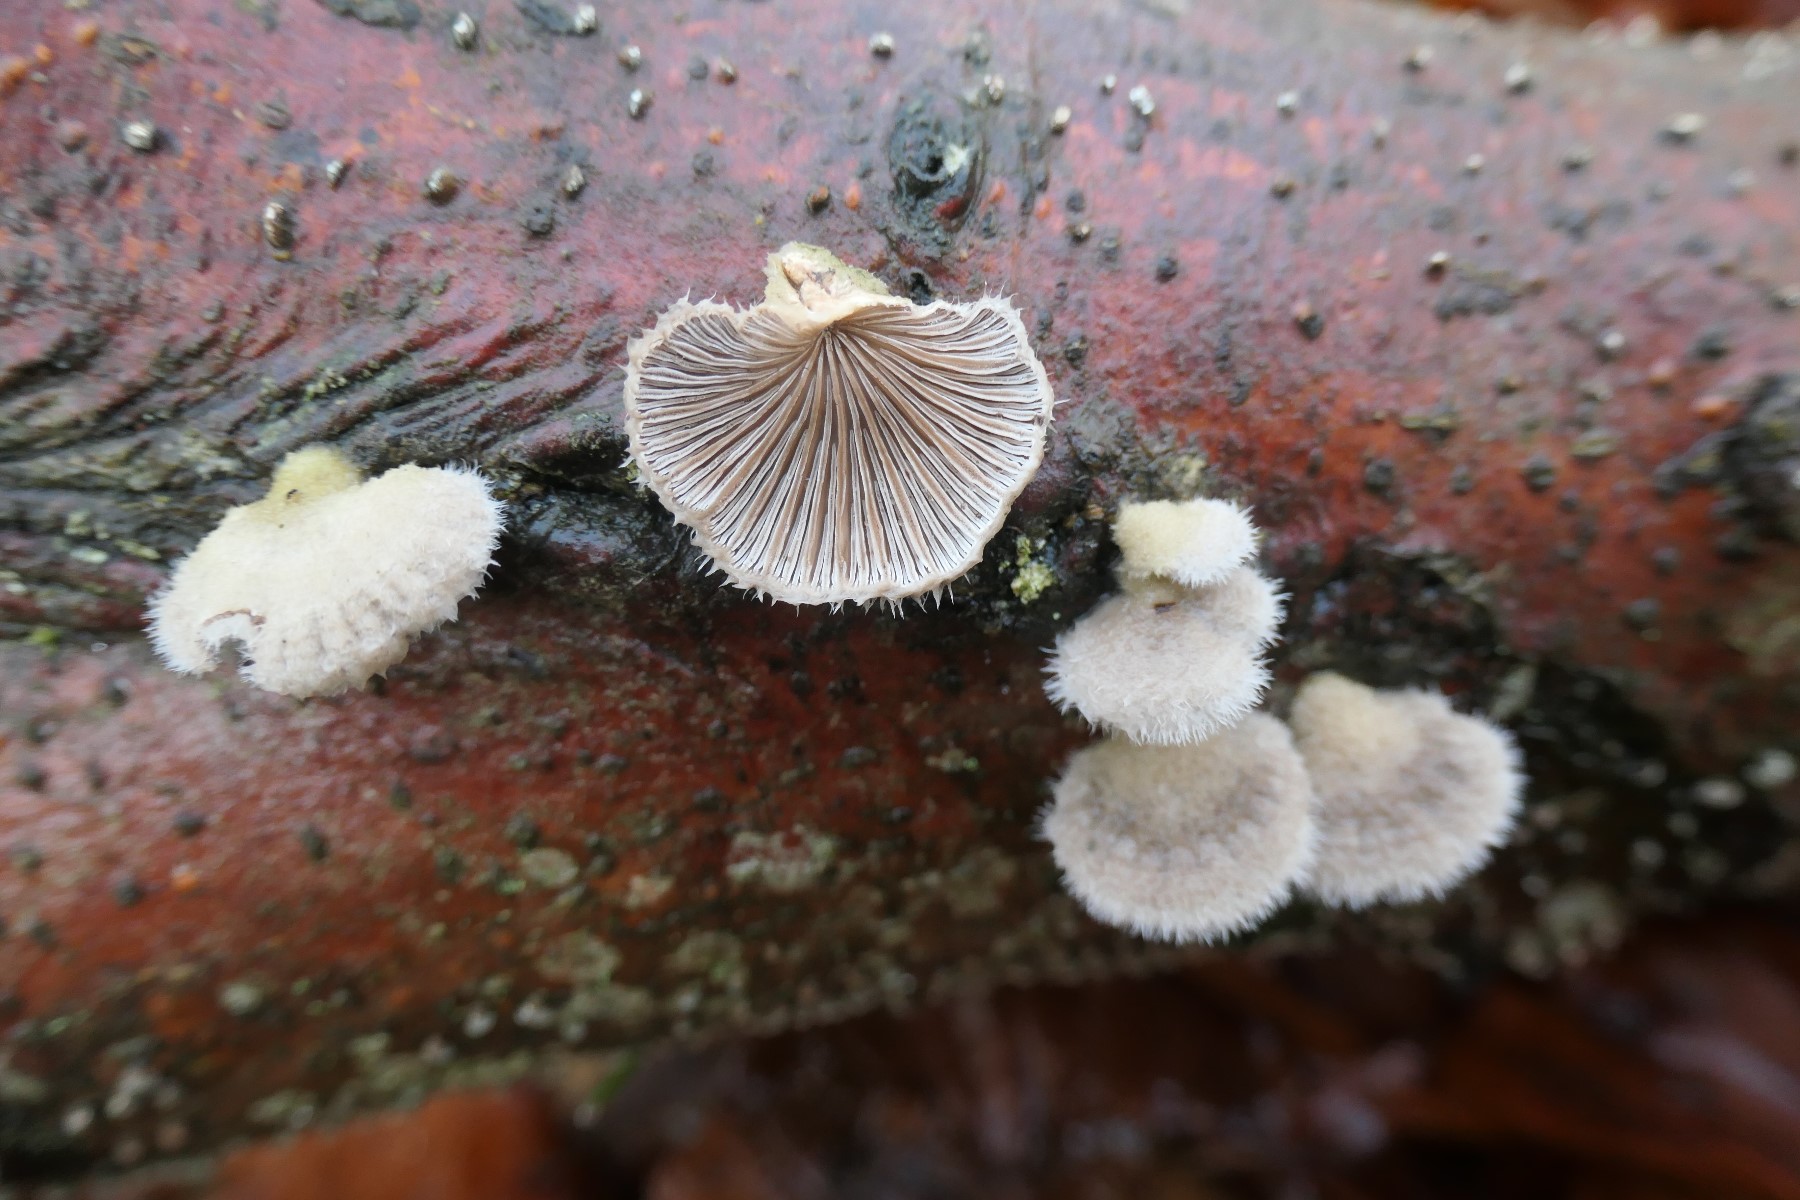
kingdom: Fungi
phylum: Basidiomycota
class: Agaricomycetes
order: Agaricales
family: Schizophyllaceae
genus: Schizophyllum
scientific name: Schizophyllum commune
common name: kløvblad
